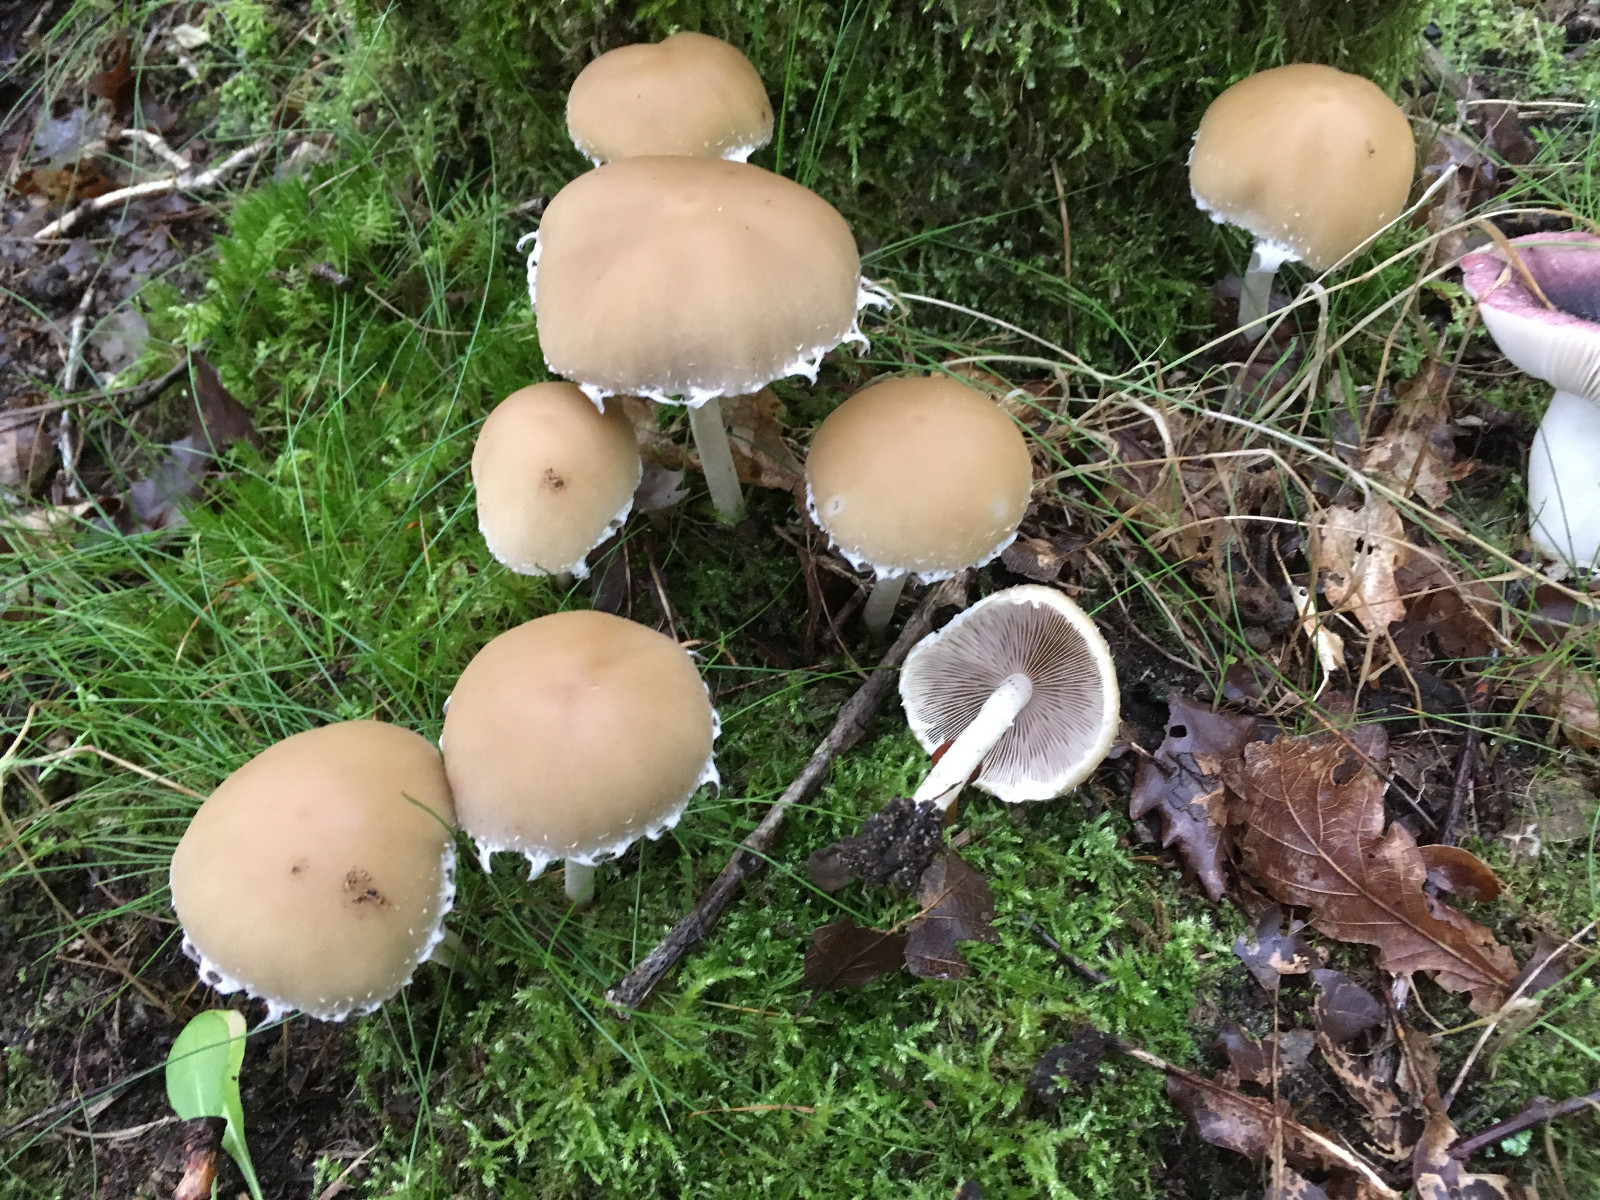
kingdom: Fungi
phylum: Basidiomycota
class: Agaricomycetes
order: Agaricales
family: Psathyrellaceae
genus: Candolleomyces
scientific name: Candolleomyces candolleanus
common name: Candolles mørkhat
